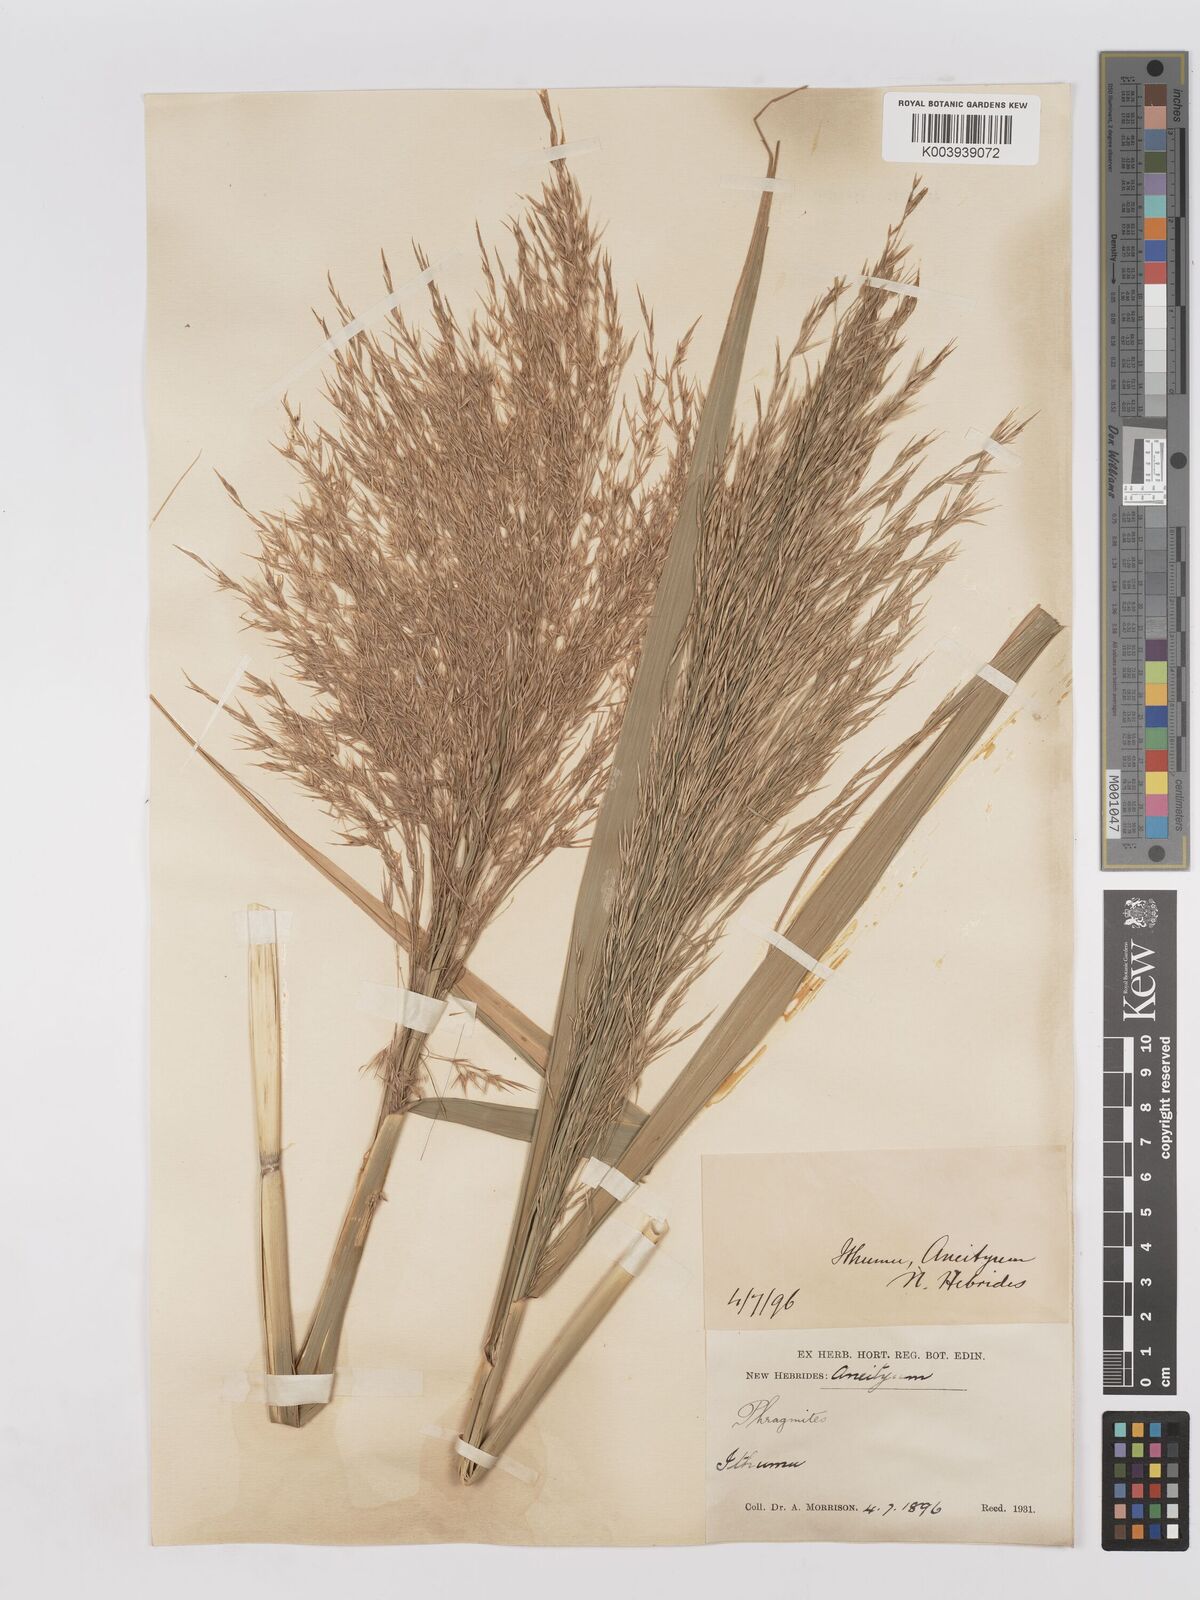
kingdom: Plantae
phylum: Tracheophyta
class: Liliopsida
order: Poales
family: Poaceae
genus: Phragmites
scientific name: Phragmites karka
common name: Tropical reed
